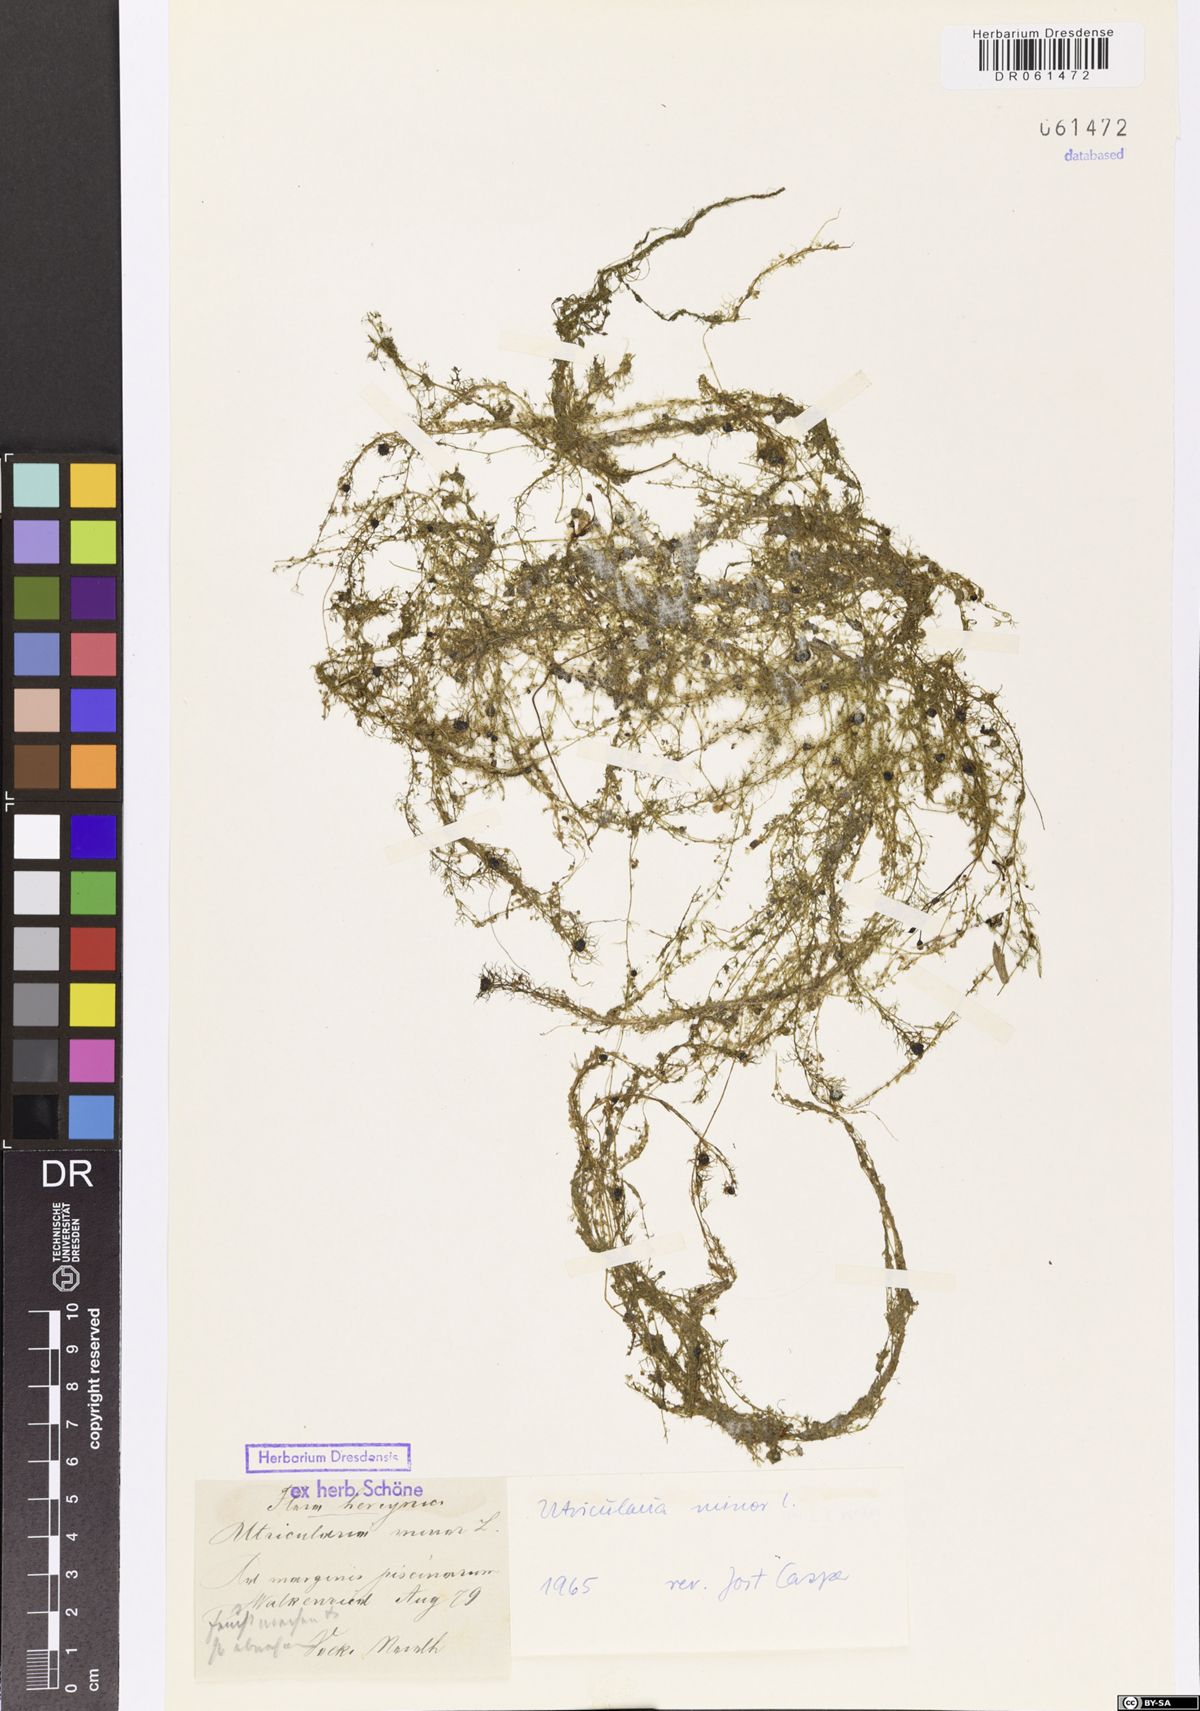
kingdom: Plantae
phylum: Tracheophyta
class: Magnoliopsida
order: Lamiales
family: Lentibulariaceae
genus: Utricularia
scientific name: Utricularia minor
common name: Lesser bladderwort
